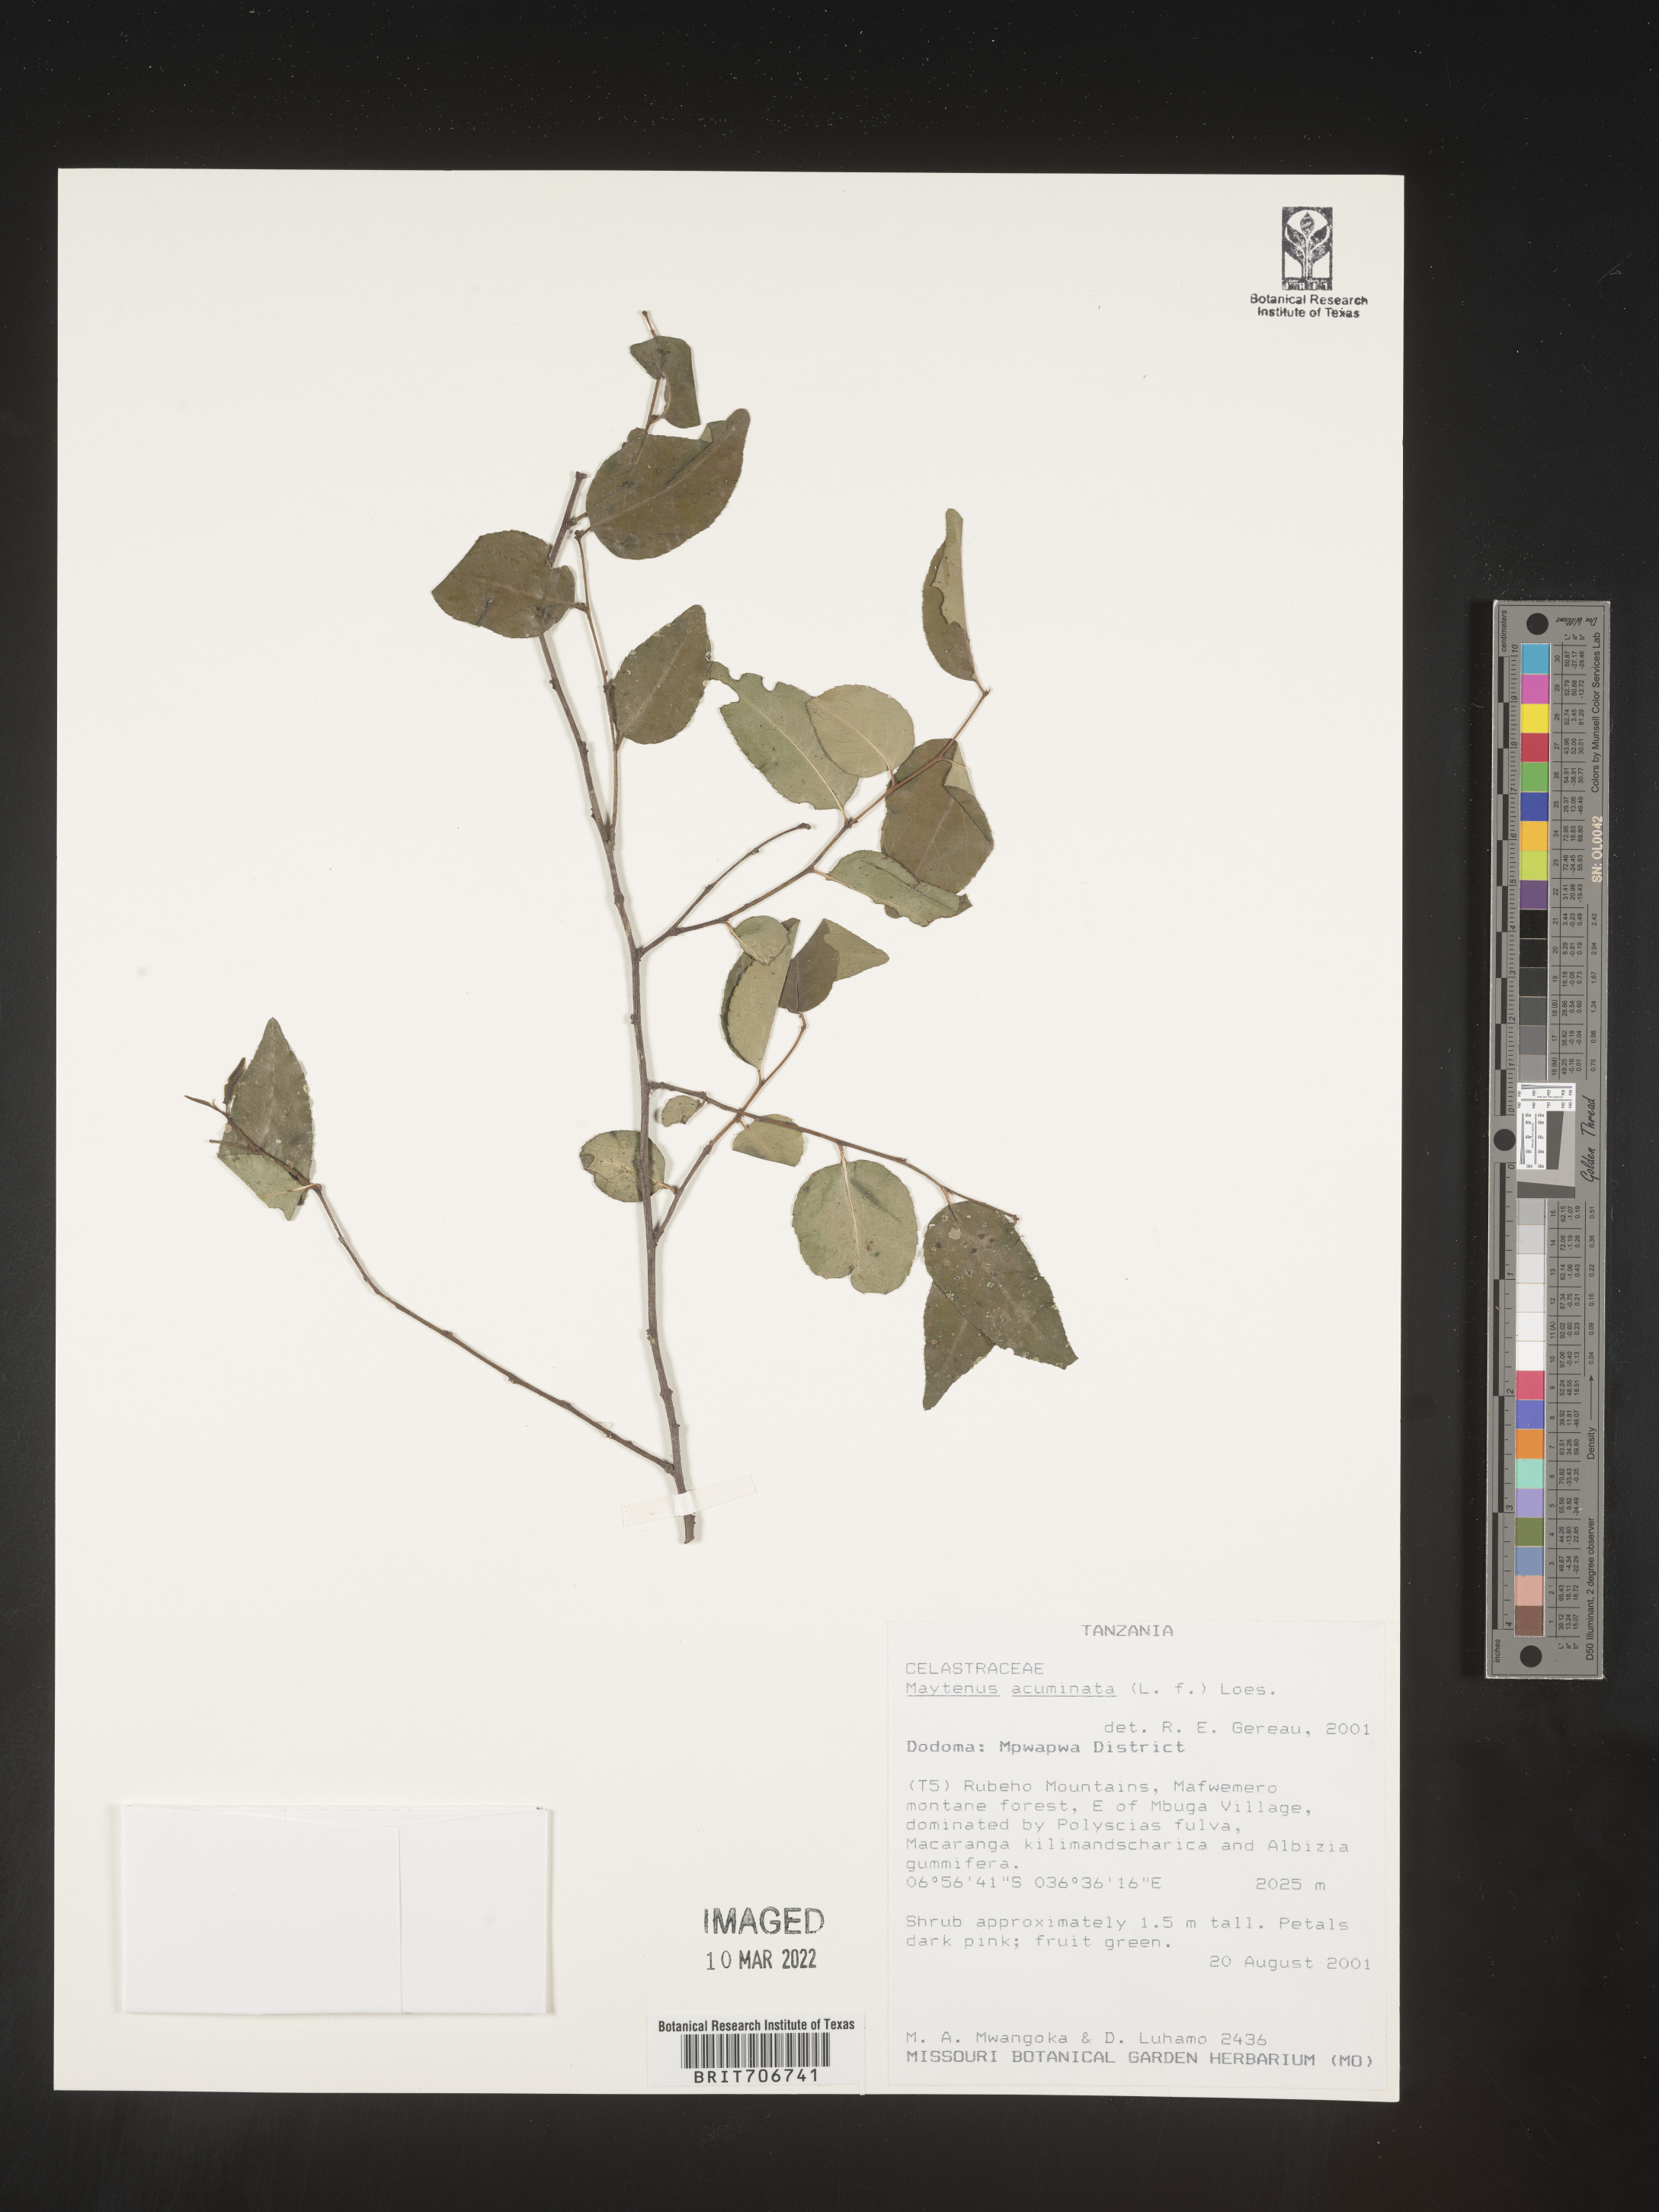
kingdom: Plantae
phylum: Tracheophyta
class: Magnoliopsida
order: Celastrales
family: Celastraceae
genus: Maytenus
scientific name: Maytenus
